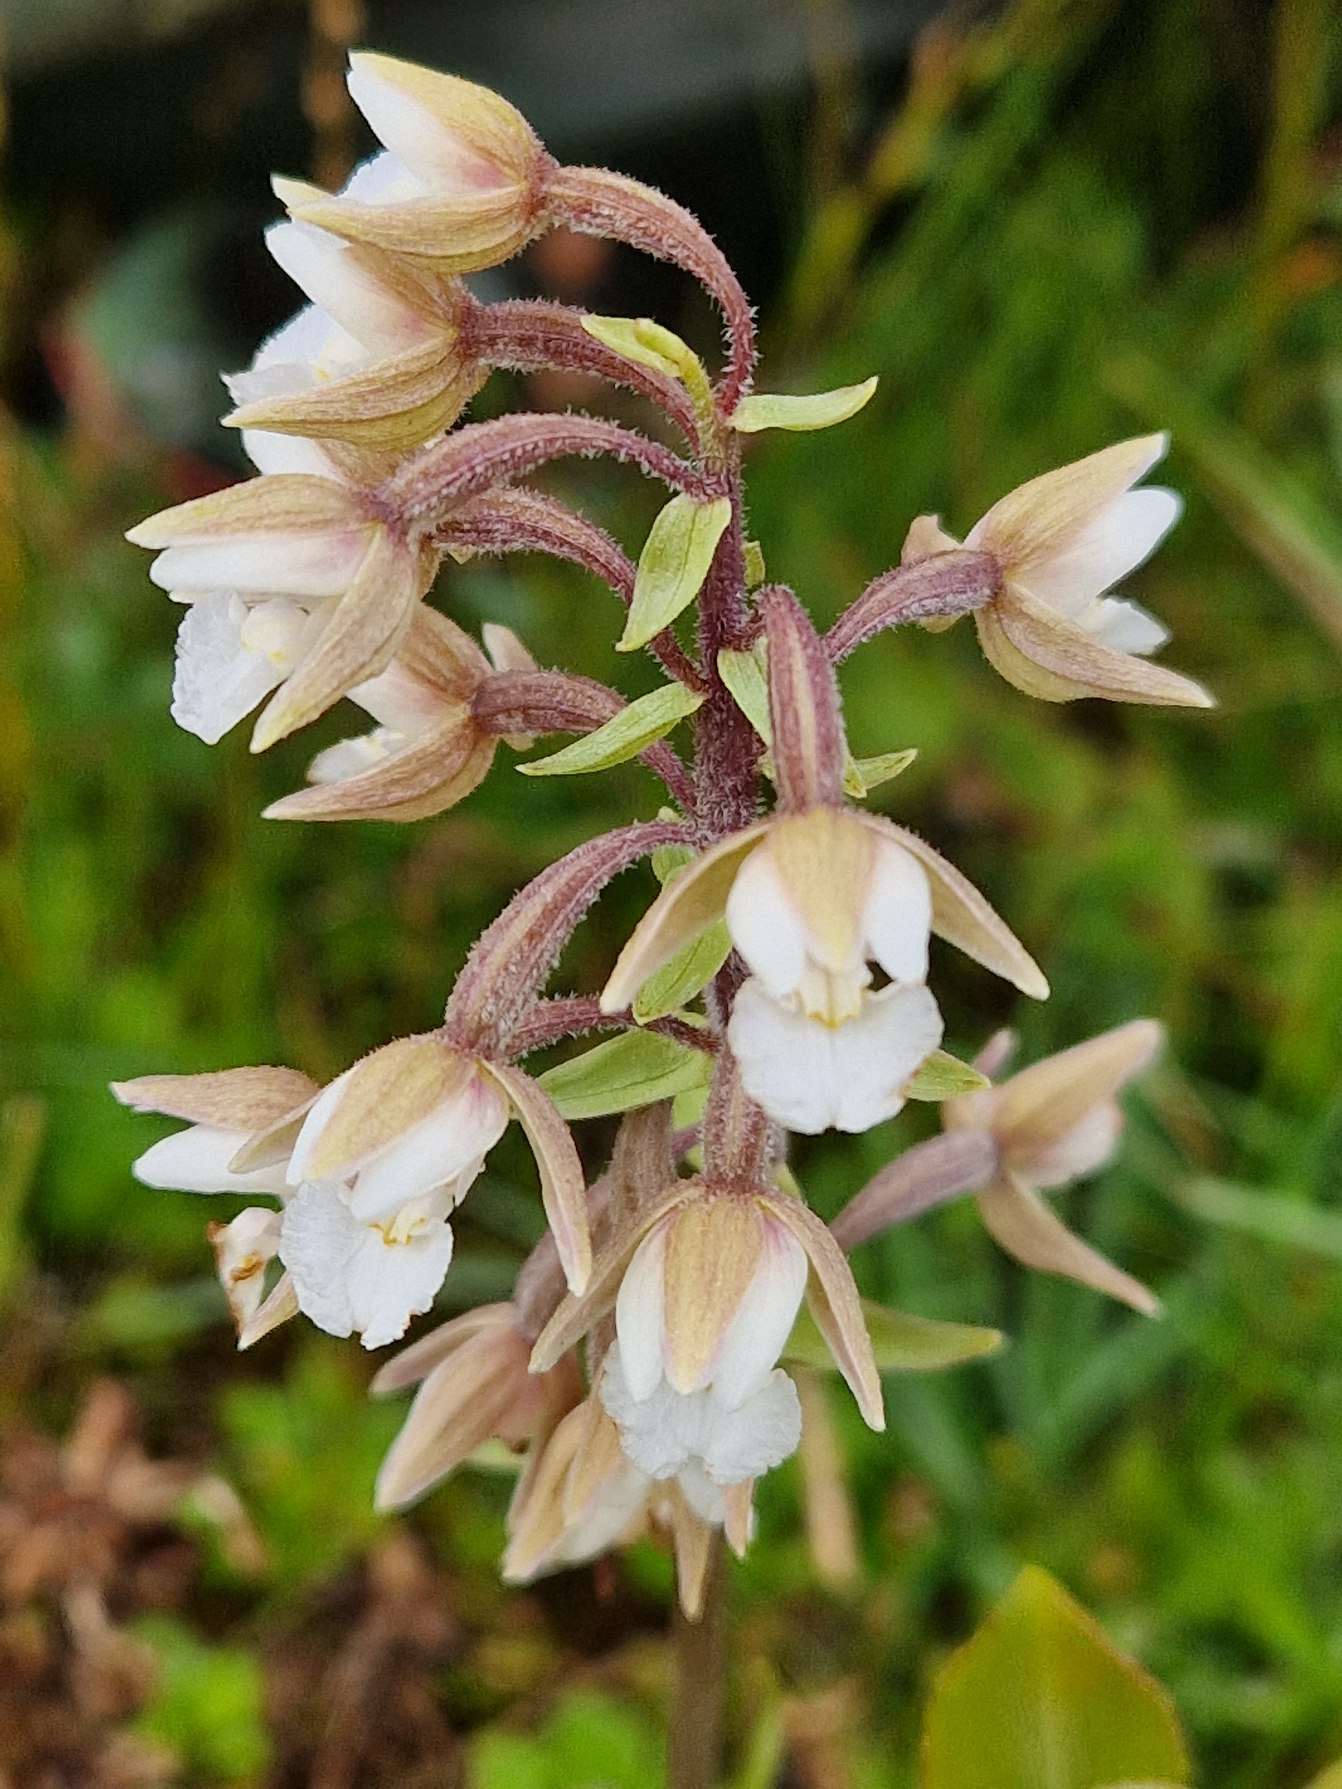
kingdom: Plantae
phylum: Tracheophyta
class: Liliopsida
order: Asparagales
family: Orchidaceae
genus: Epipactis
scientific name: Epipactis palustris
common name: Sump-hullæbe
